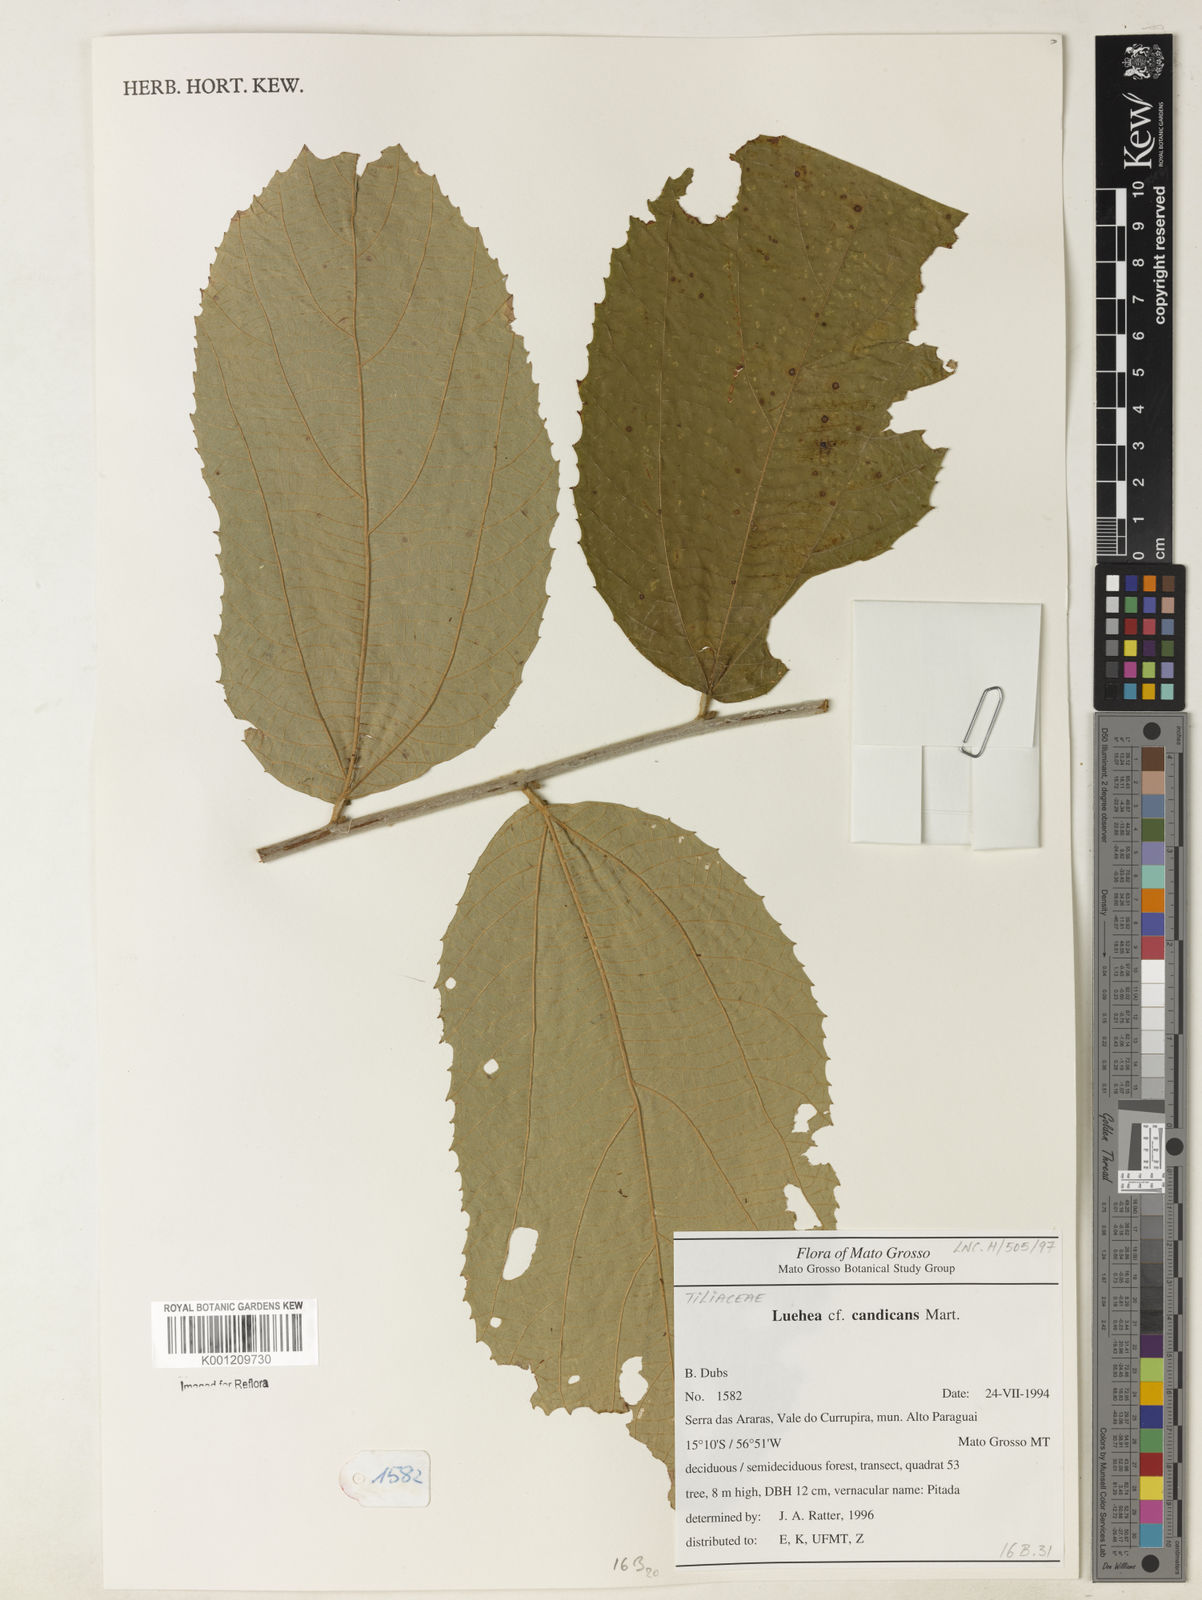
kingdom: Plantae
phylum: Tracheophyta
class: Magnoliopsida
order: Malvales
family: Malvaceae
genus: Luehea
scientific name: Luehea candicans
